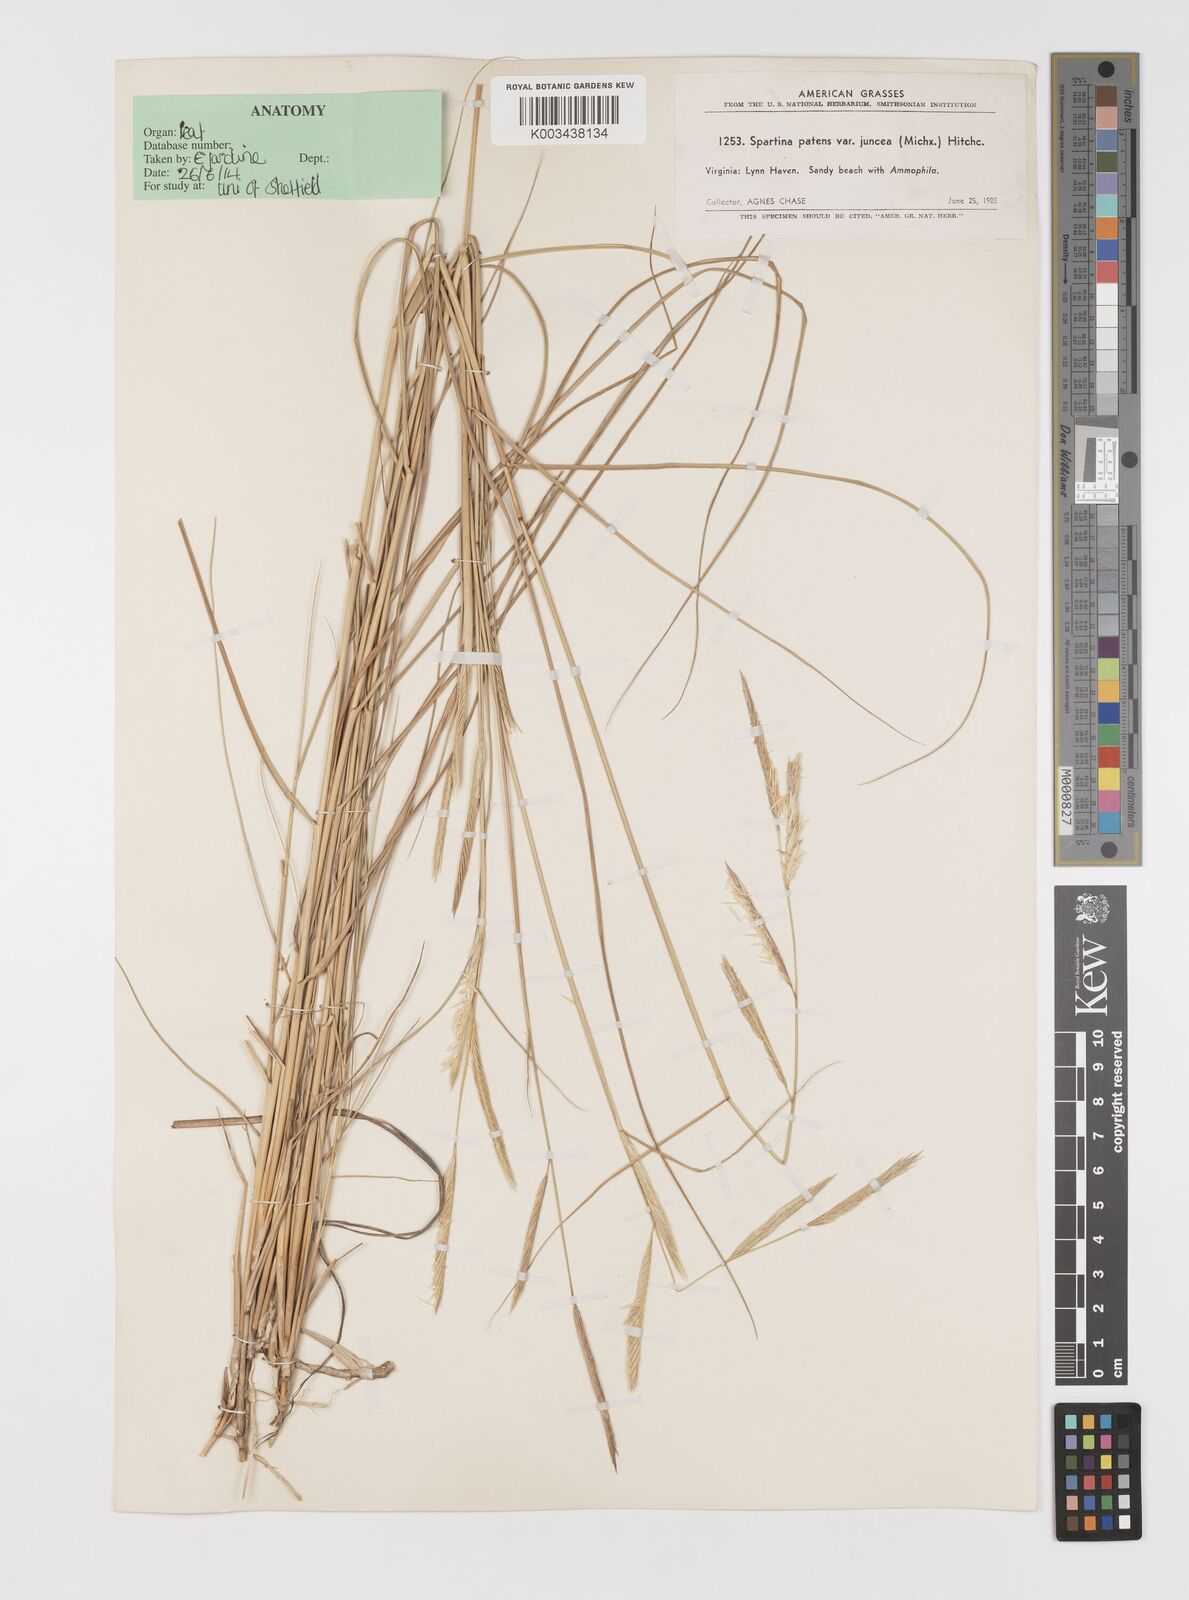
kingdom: Plantae
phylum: Tracheophyta
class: Liliopsida
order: Poales
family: Poaceae
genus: Sporobolus
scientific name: Sporobolus pumilus
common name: Highwater grass
